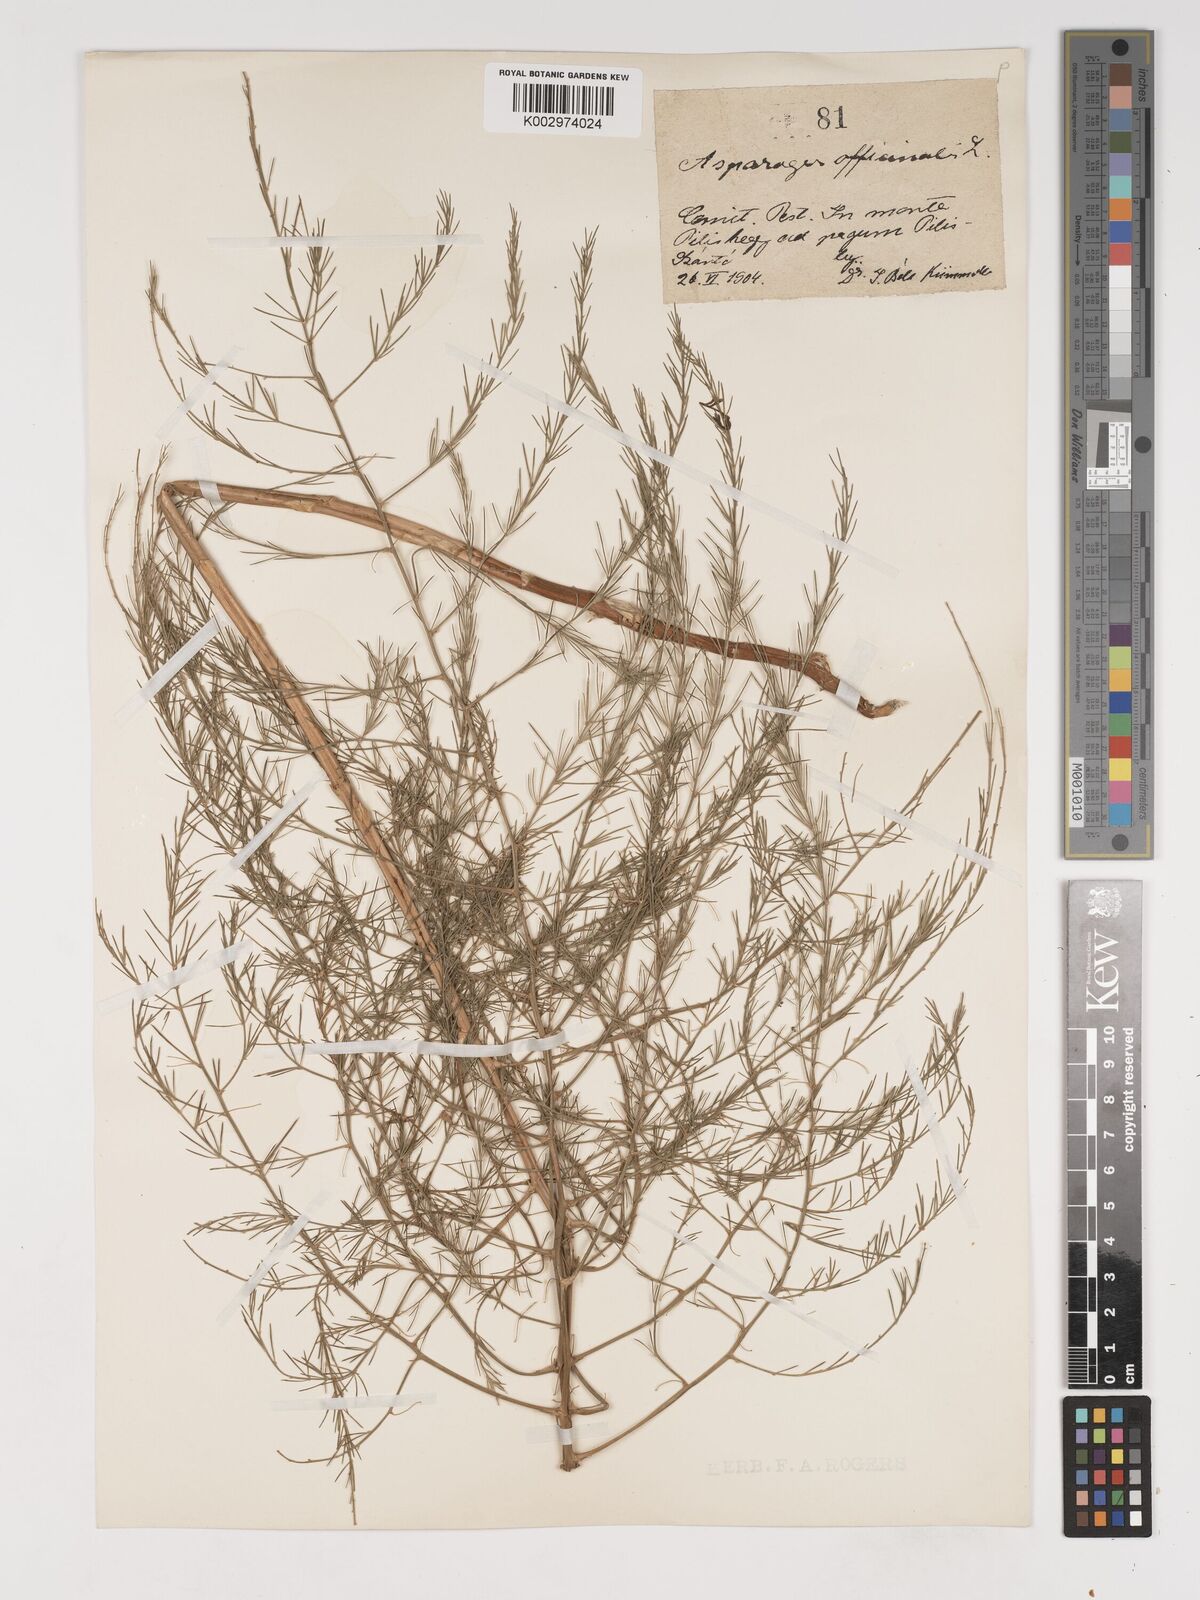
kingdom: Plantae
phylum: Tracheophyta
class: Liliopsida
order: Asparagales
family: Asparagaceae
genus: Asparagus
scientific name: Asparagus
